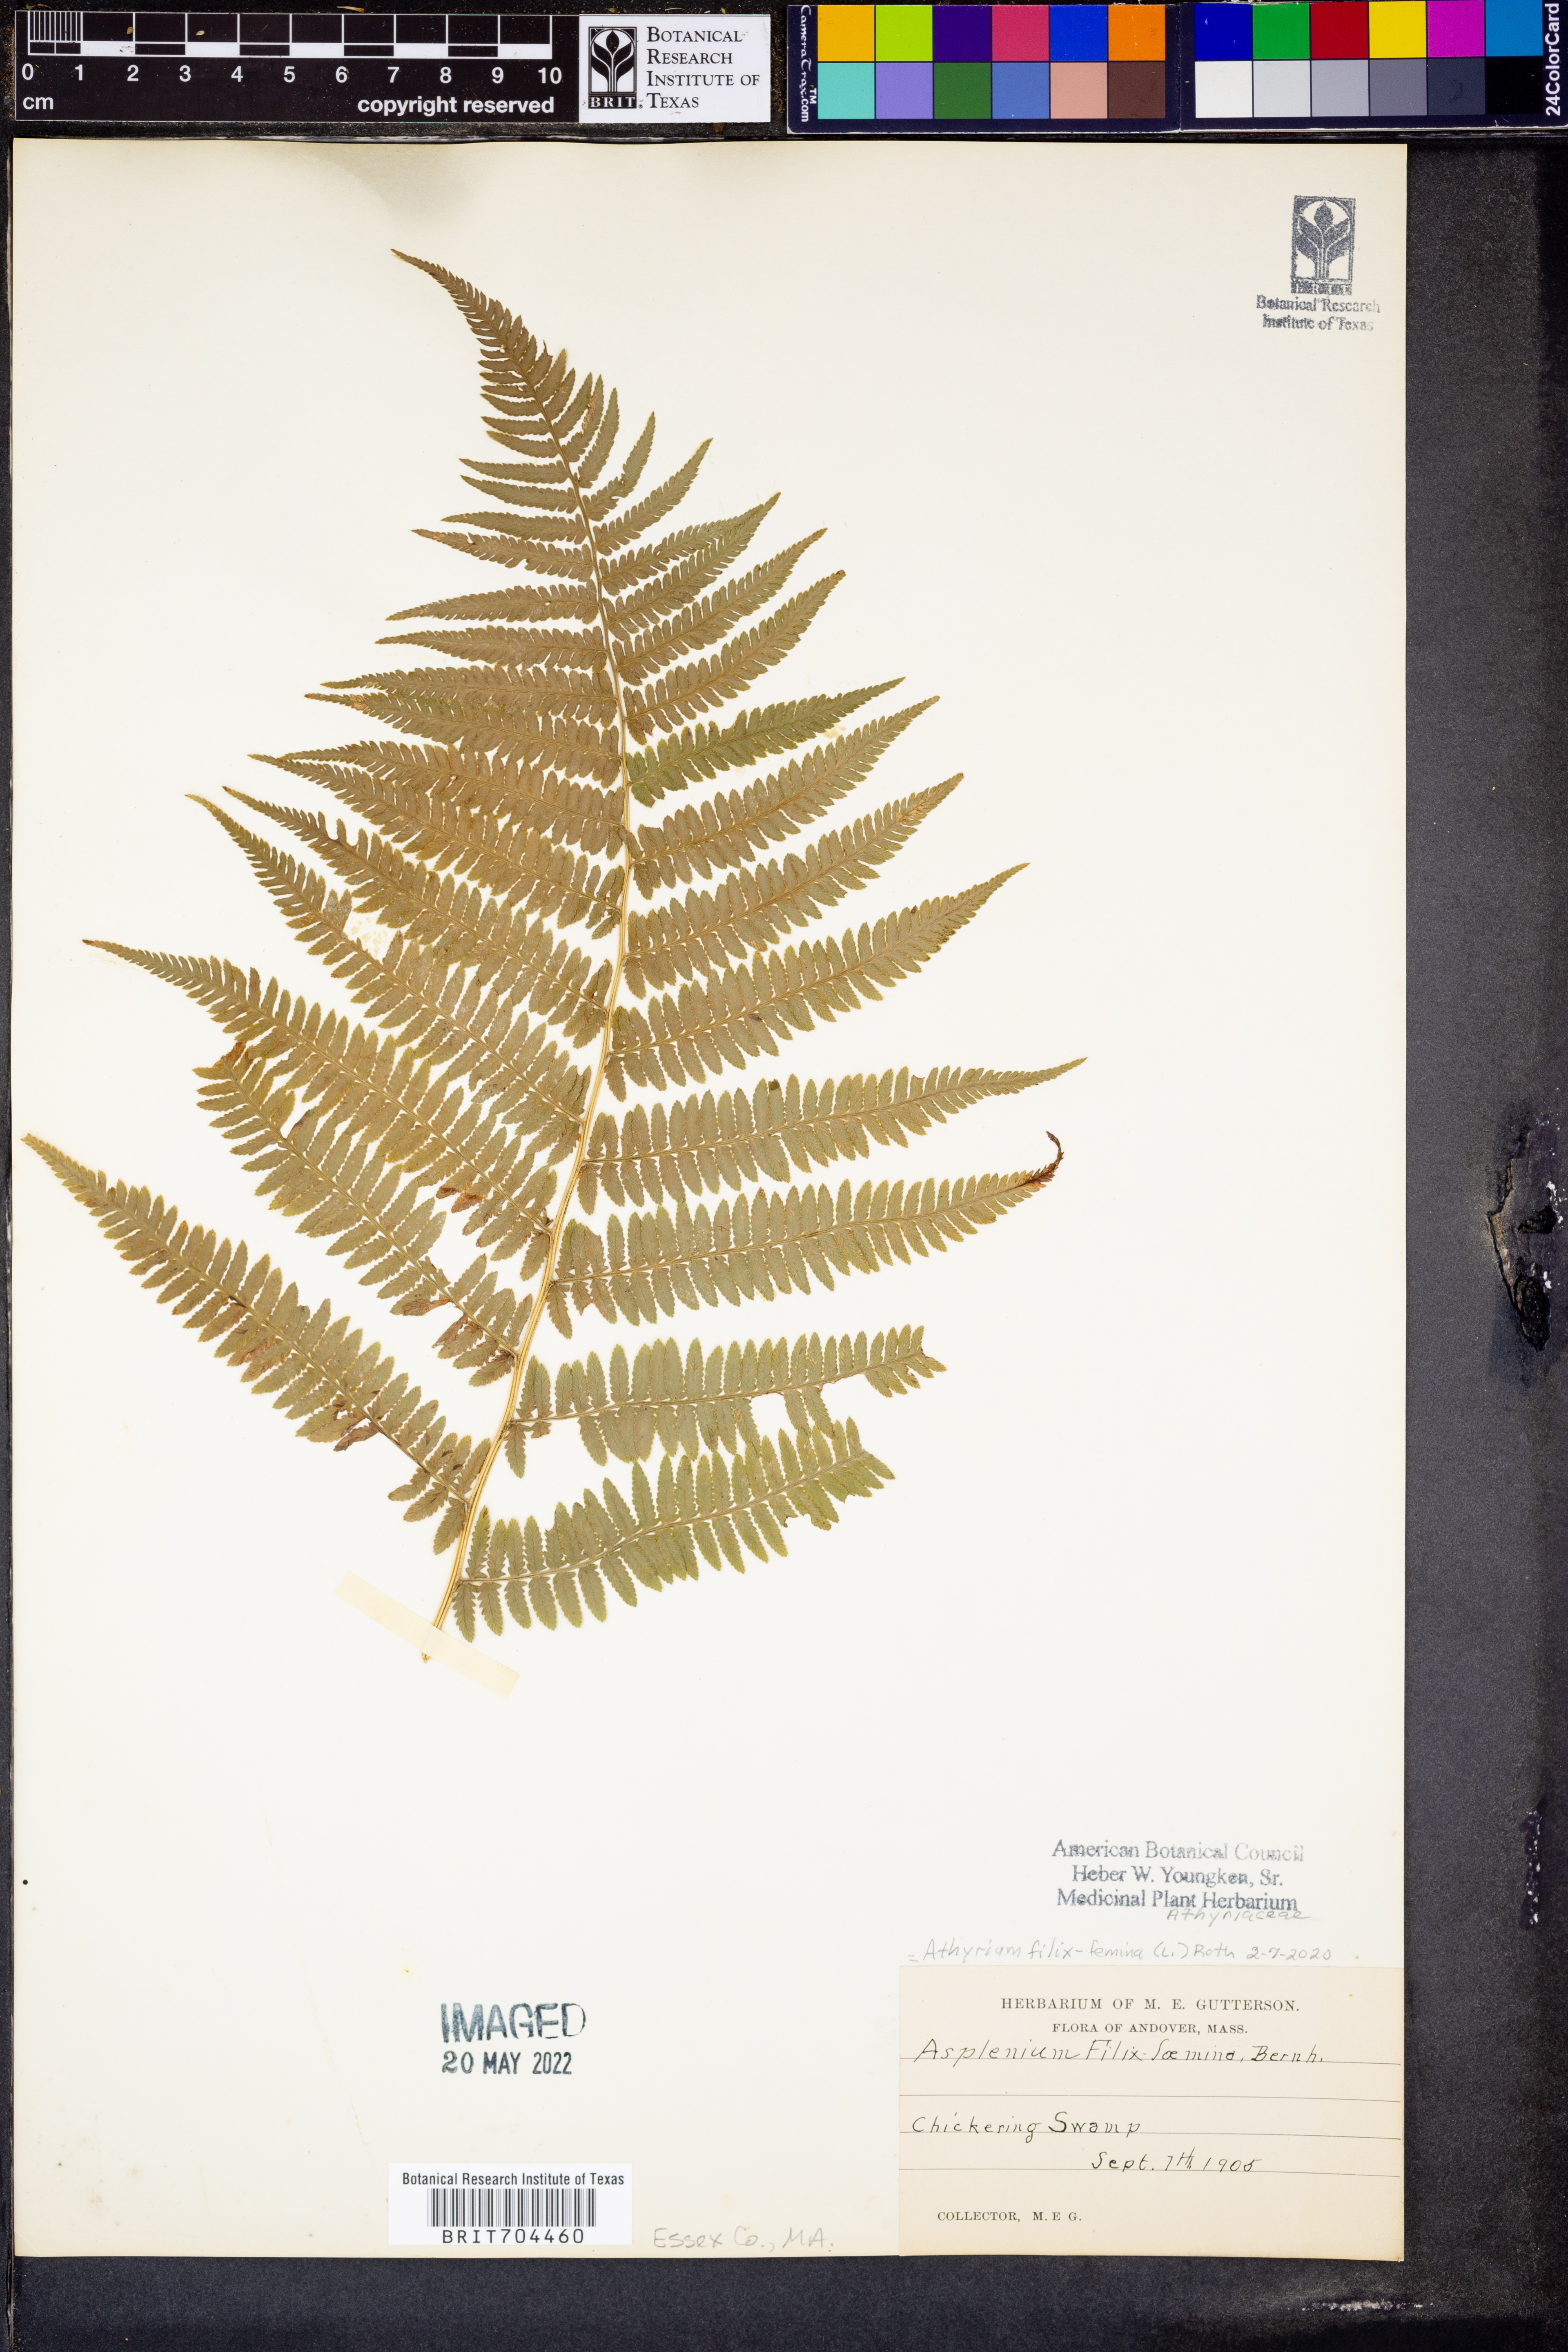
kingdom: Plantae
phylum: Tracheophyta
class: Polypodiopsida
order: Polypodiales
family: Athyriaceae
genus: Athyrium
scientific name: Athyrium filix-femina
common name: Lady fern
